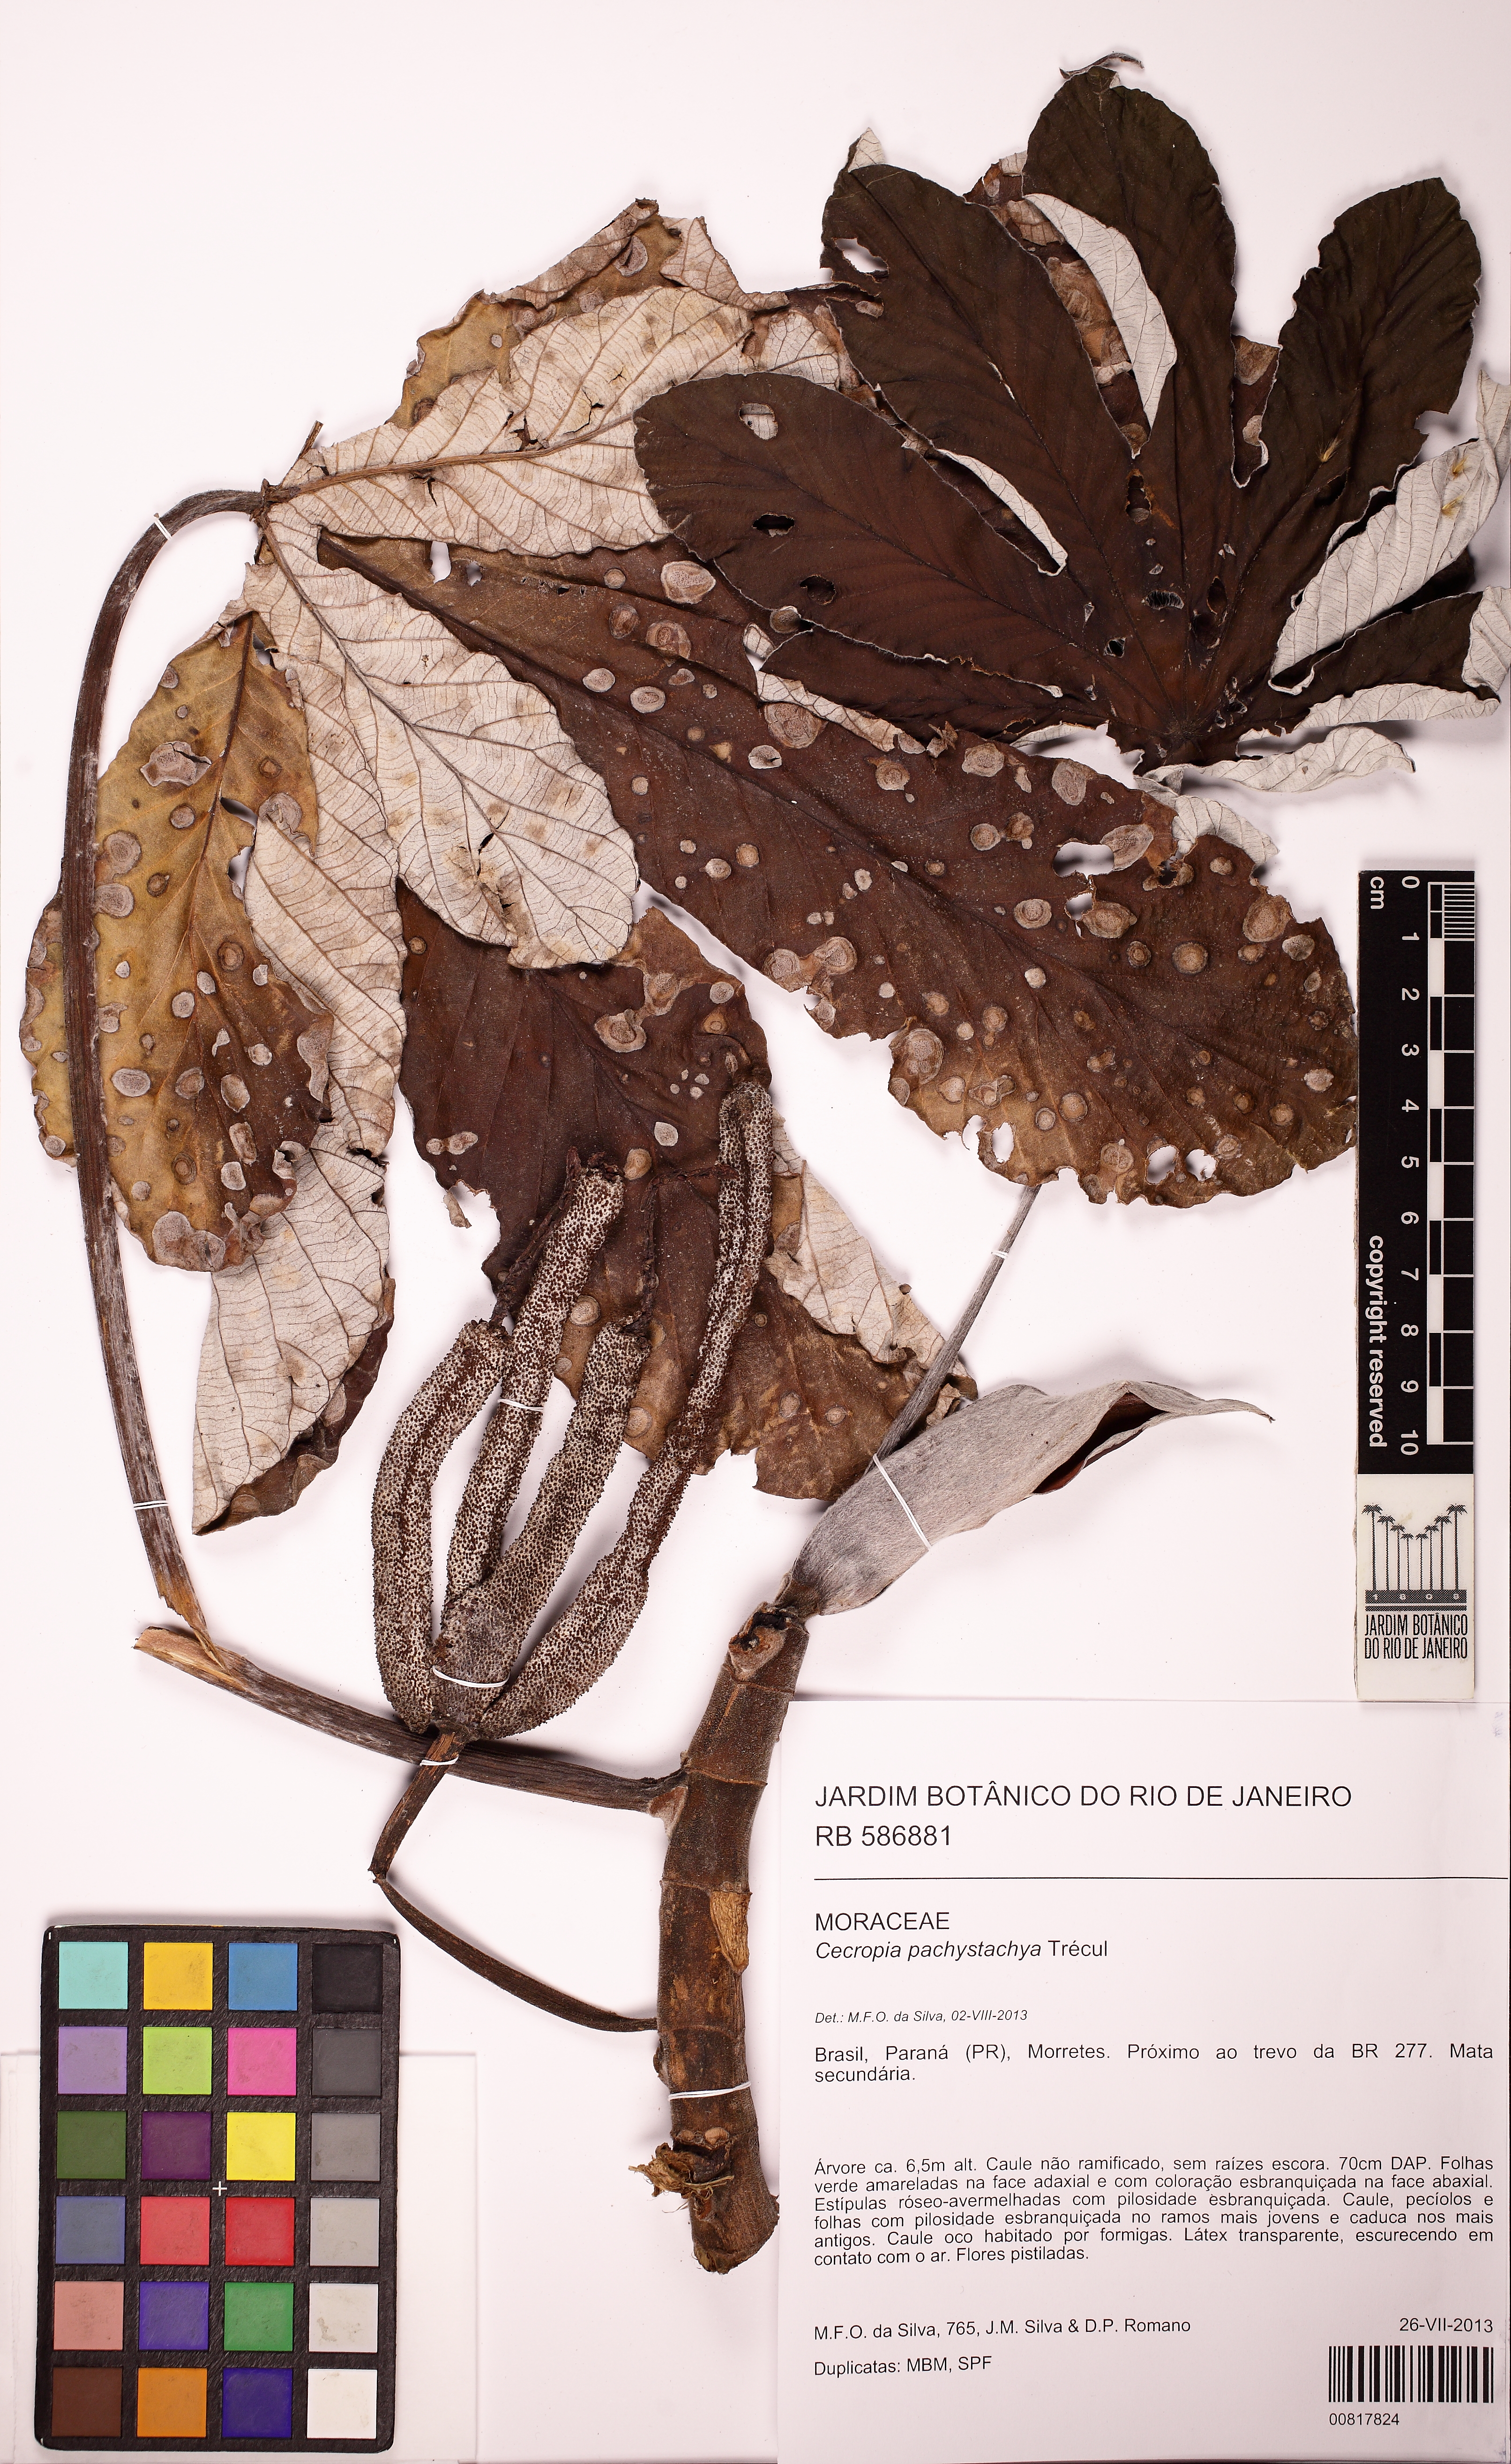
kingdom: Plantae
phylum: Tracheophyta
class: Magnoliopsida
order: Rosales
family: Urticaceae
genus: Cecropia
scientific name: Cecropia pachystachya
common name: Ambay pumpwood
